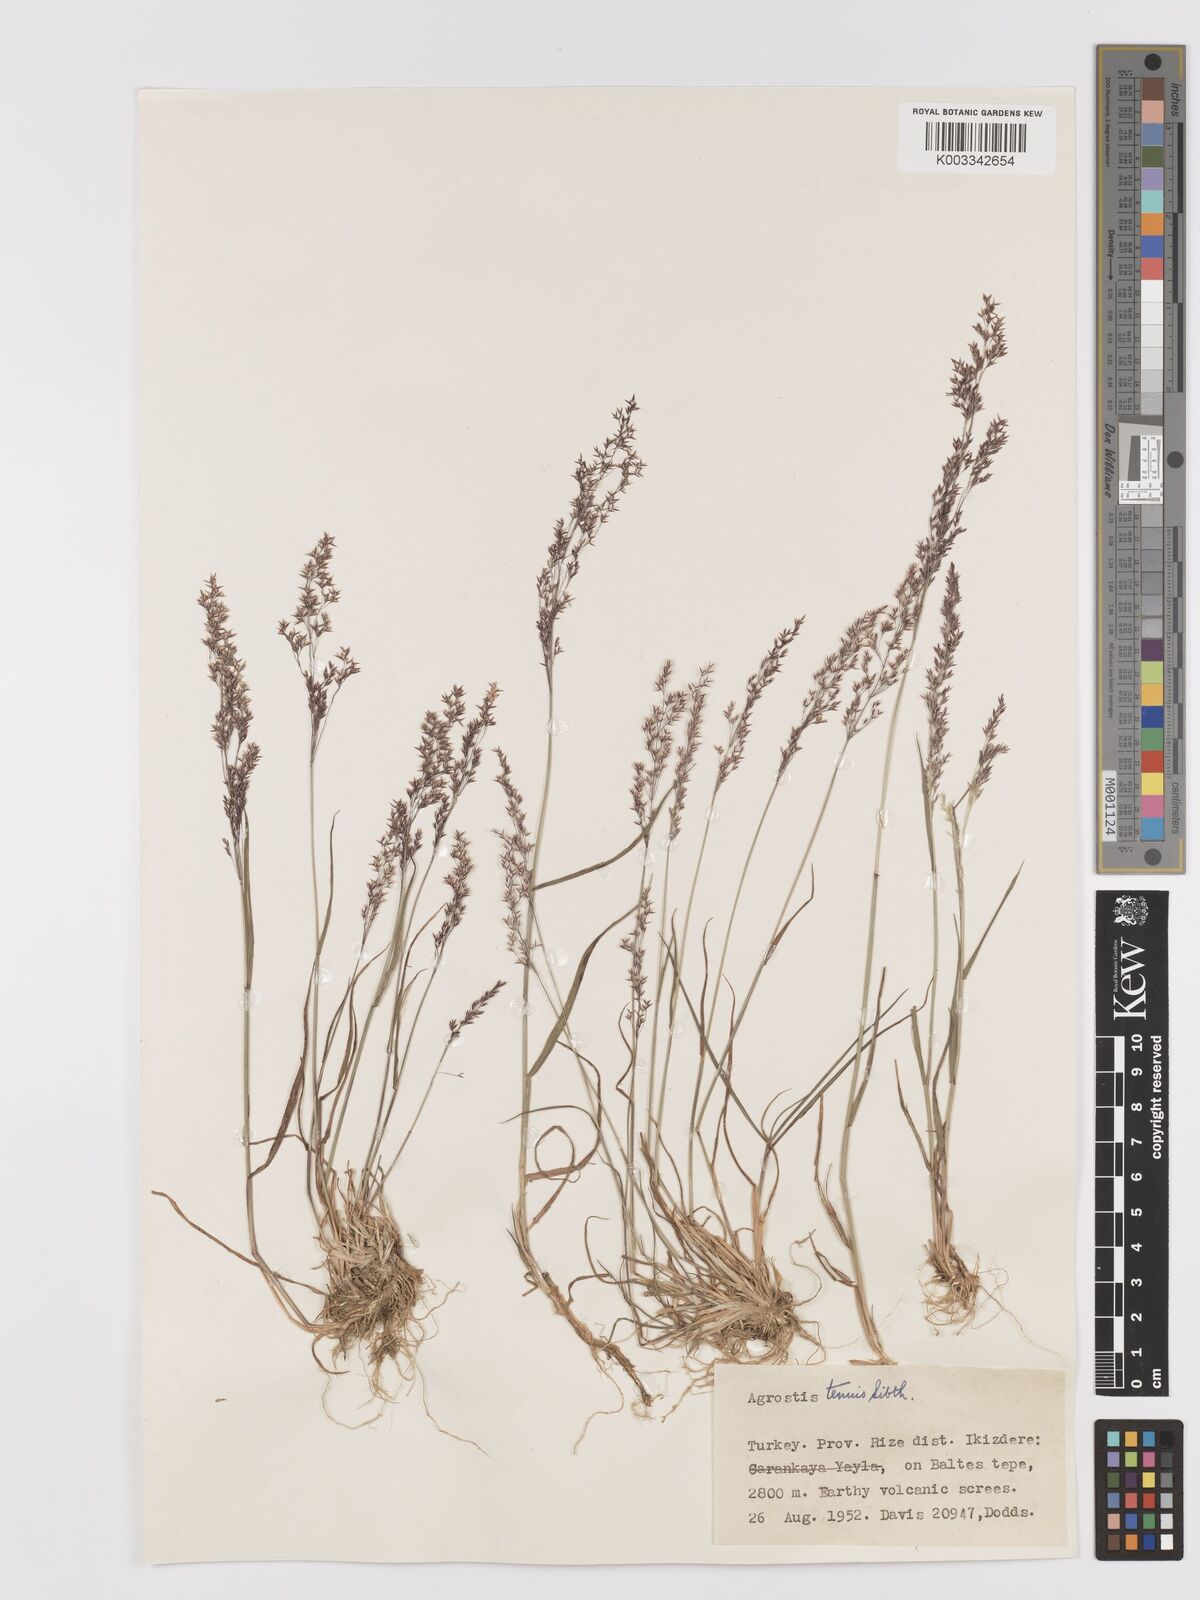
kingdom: Plantae
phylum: Tracheophyta
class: Liliopsida
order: Poales
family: Poaceae
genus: Agrostis
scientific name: Agrostis capillaris
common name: Colonial bentgrass
